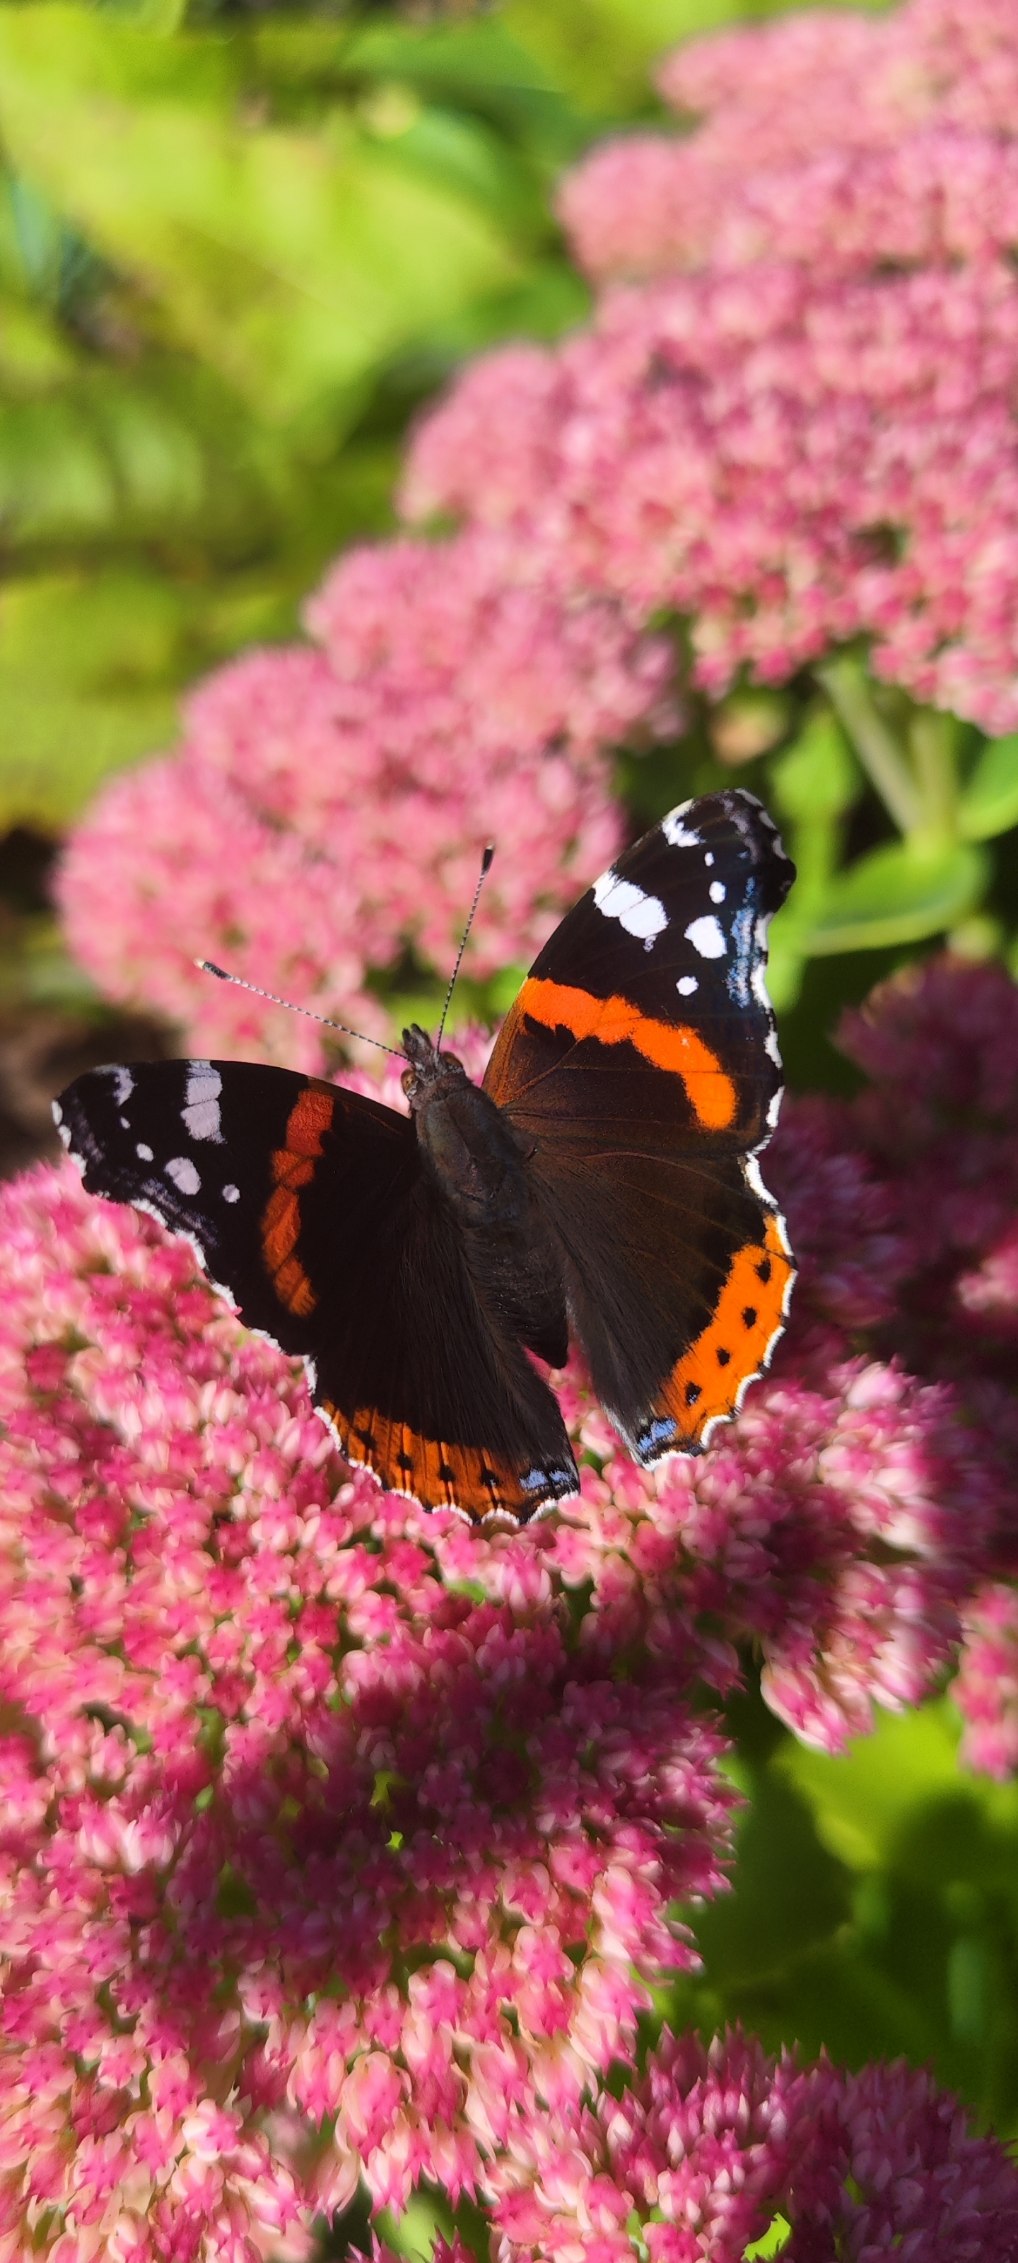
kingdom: Animalia
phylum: Arthropoda
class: Insecta
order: Lepidoptera
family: Nymphalidae
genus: Vanessa
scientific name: Vanessa atalanta
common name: Admiral
